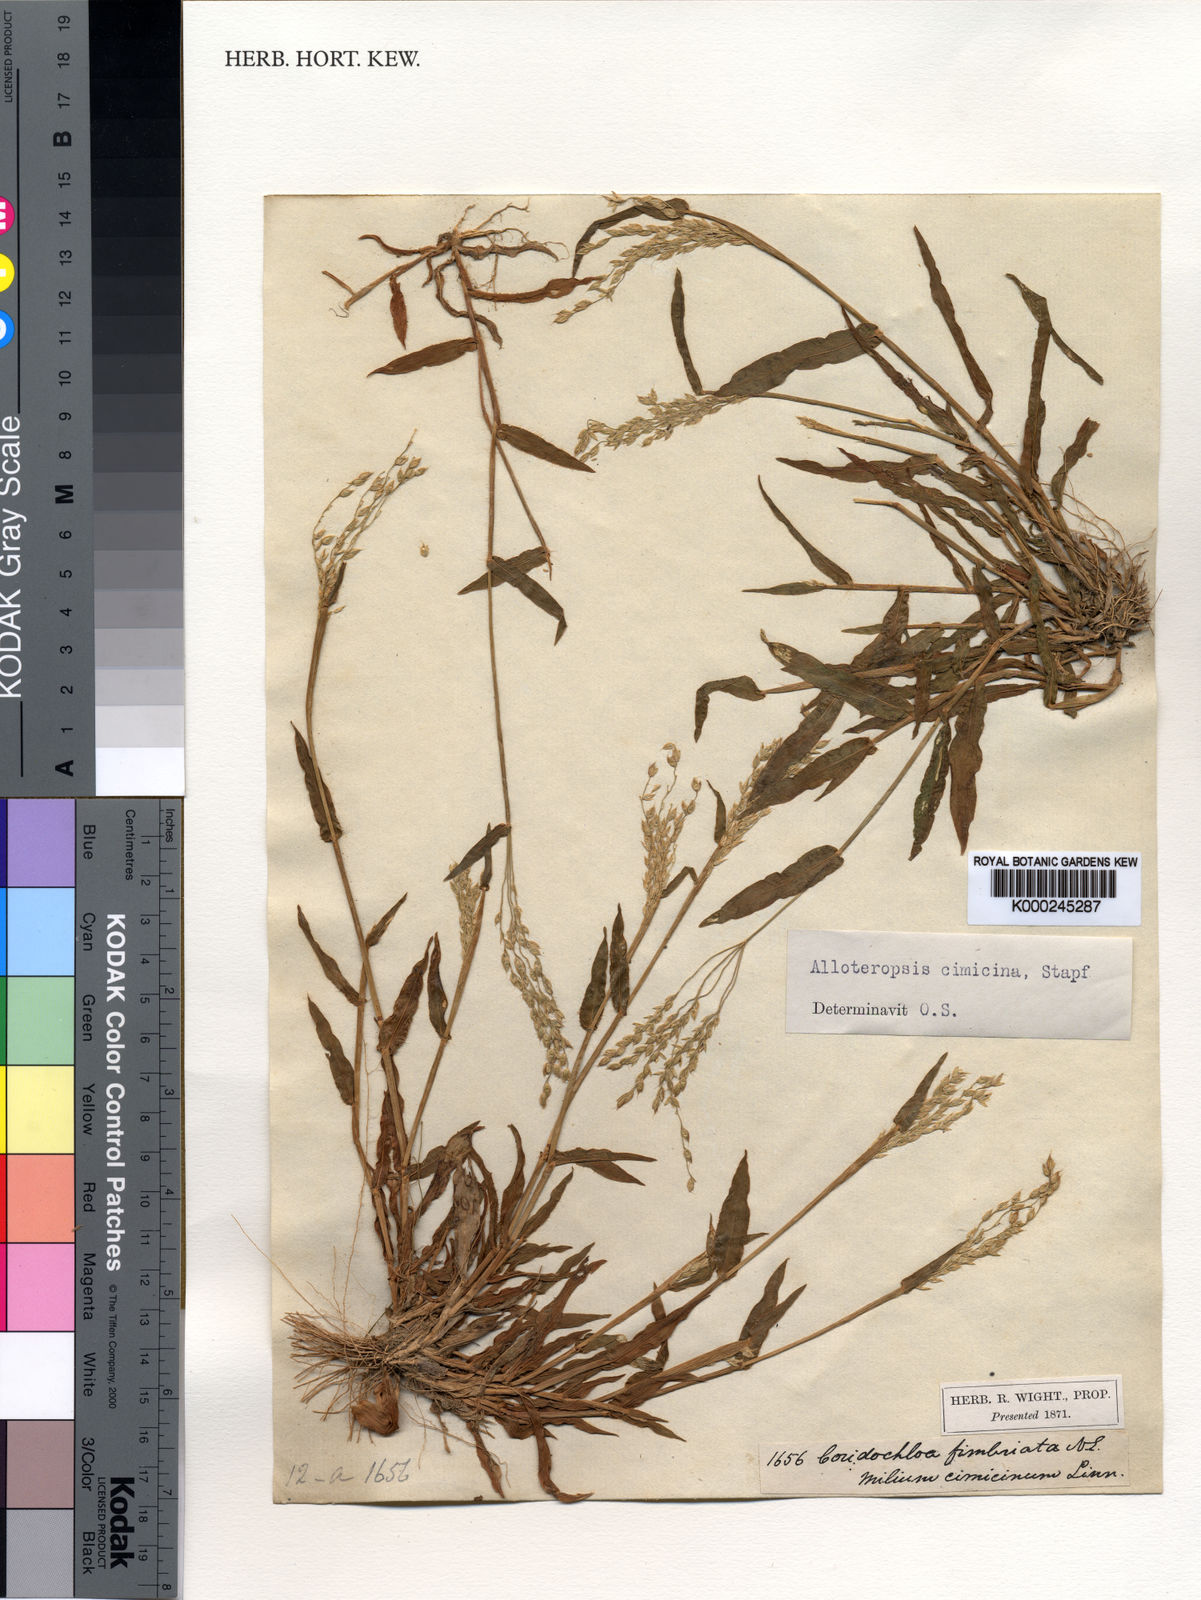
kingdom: Plantae
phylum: Tracheophyta
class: Liliopsida
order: Poales
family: Poaceae
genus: Alloteropsis
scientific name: Alloteropsis cimicina
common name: Summergrass
